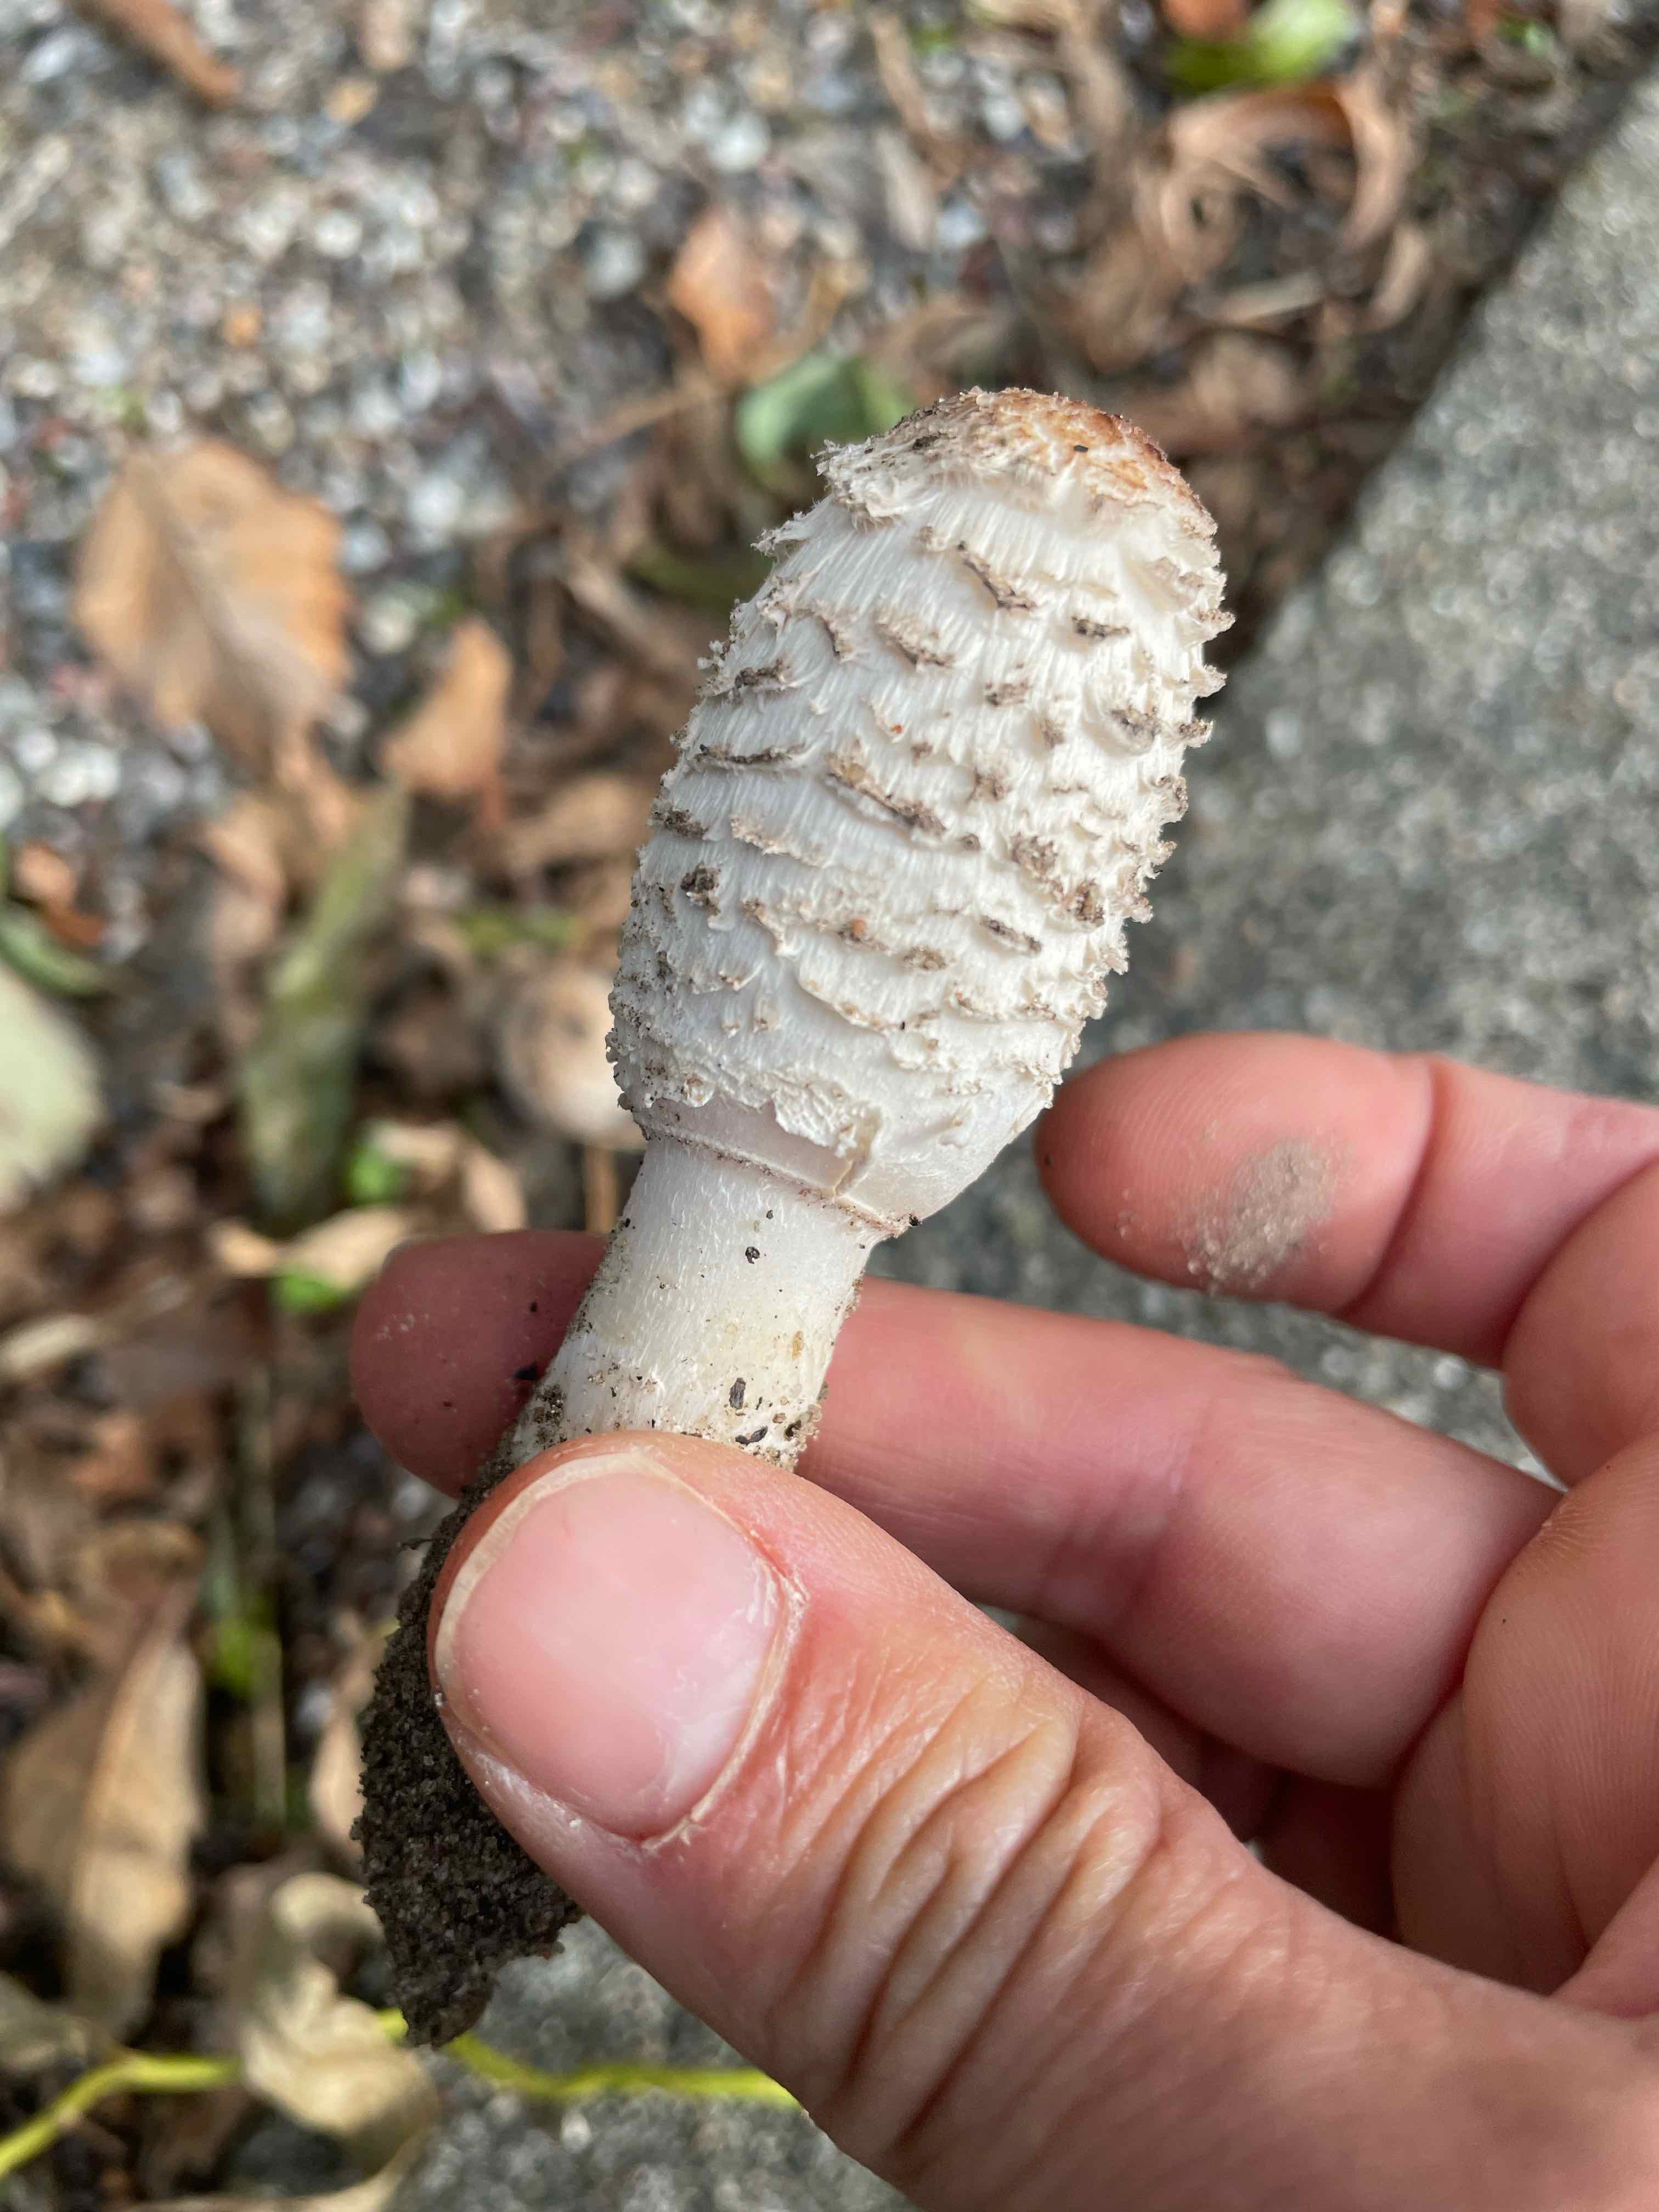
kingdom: Fungi
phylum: Basidiomycota
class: Agaricomycetes
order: Agaricales
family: Agaricaceae
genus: Coprinus
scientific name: Coprinus comatus
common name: stor parykhat
